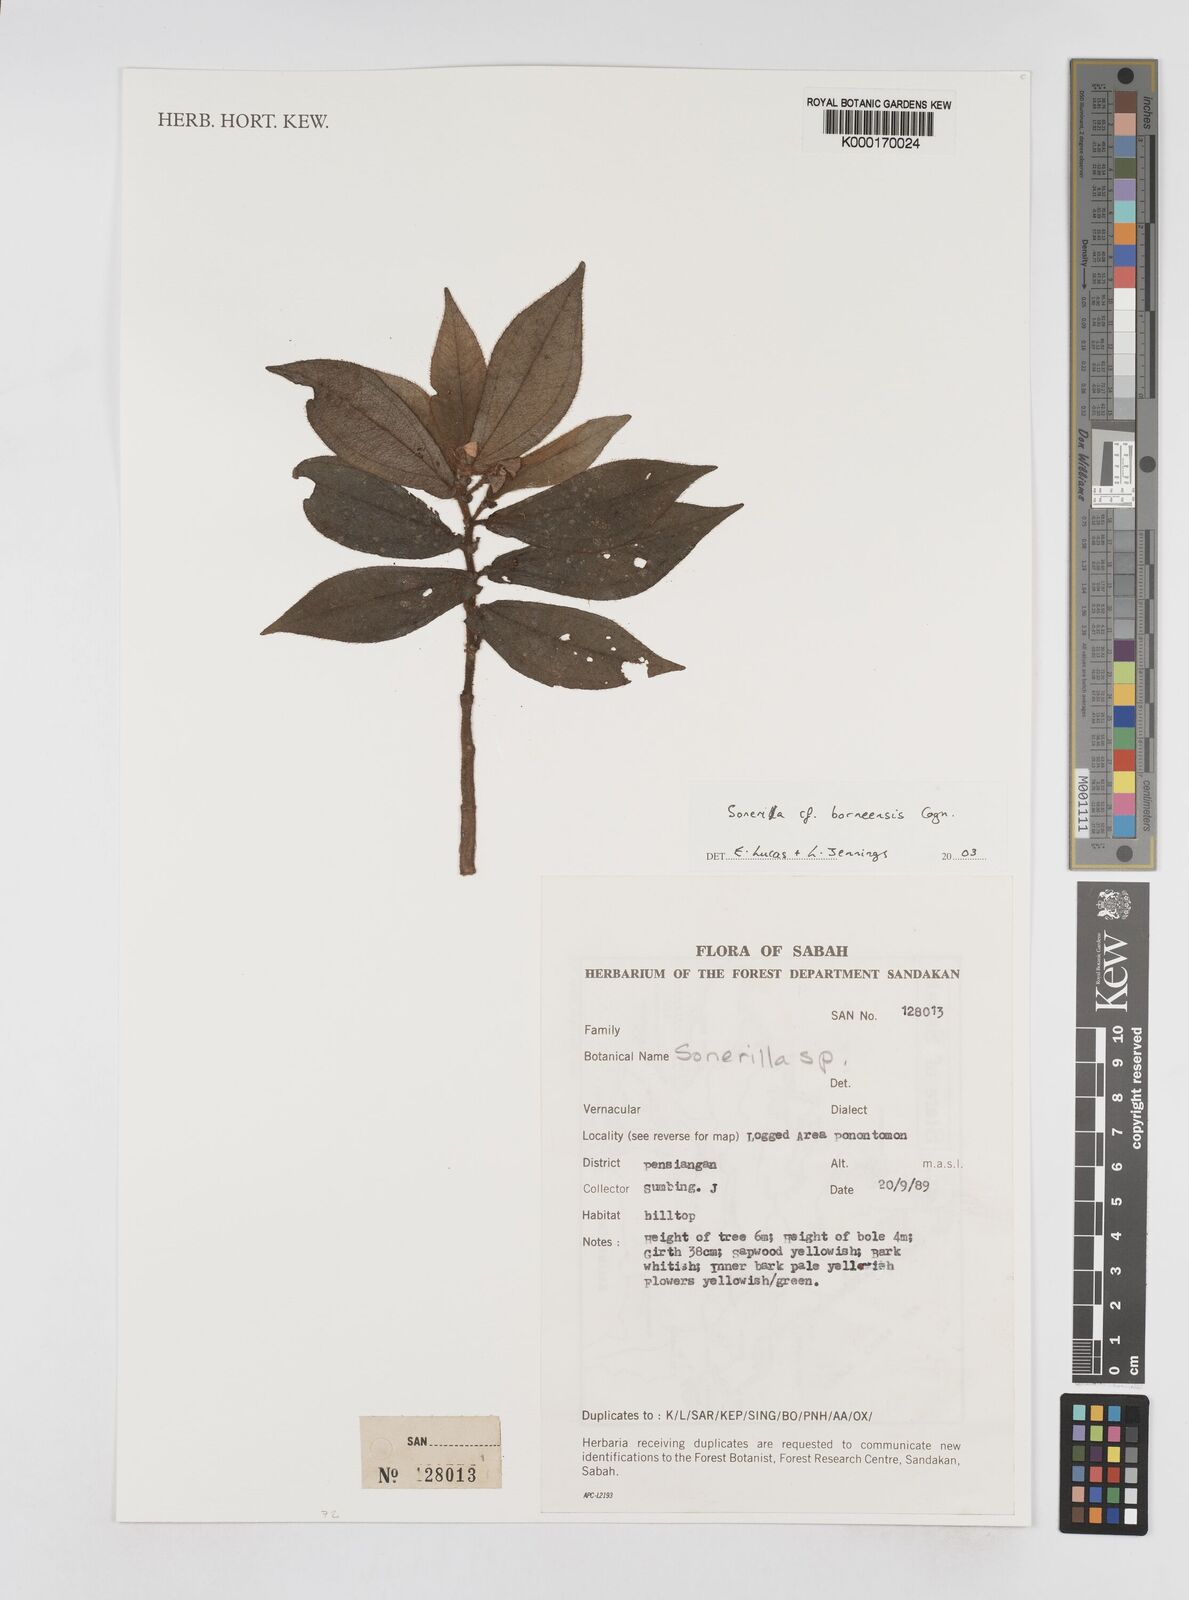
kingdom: Plantae
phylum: Tracheophyta
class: Magnoliopsida
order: Myrtales
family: Melastomataceae
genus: Sonerila
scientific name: Sonerila borneensis
